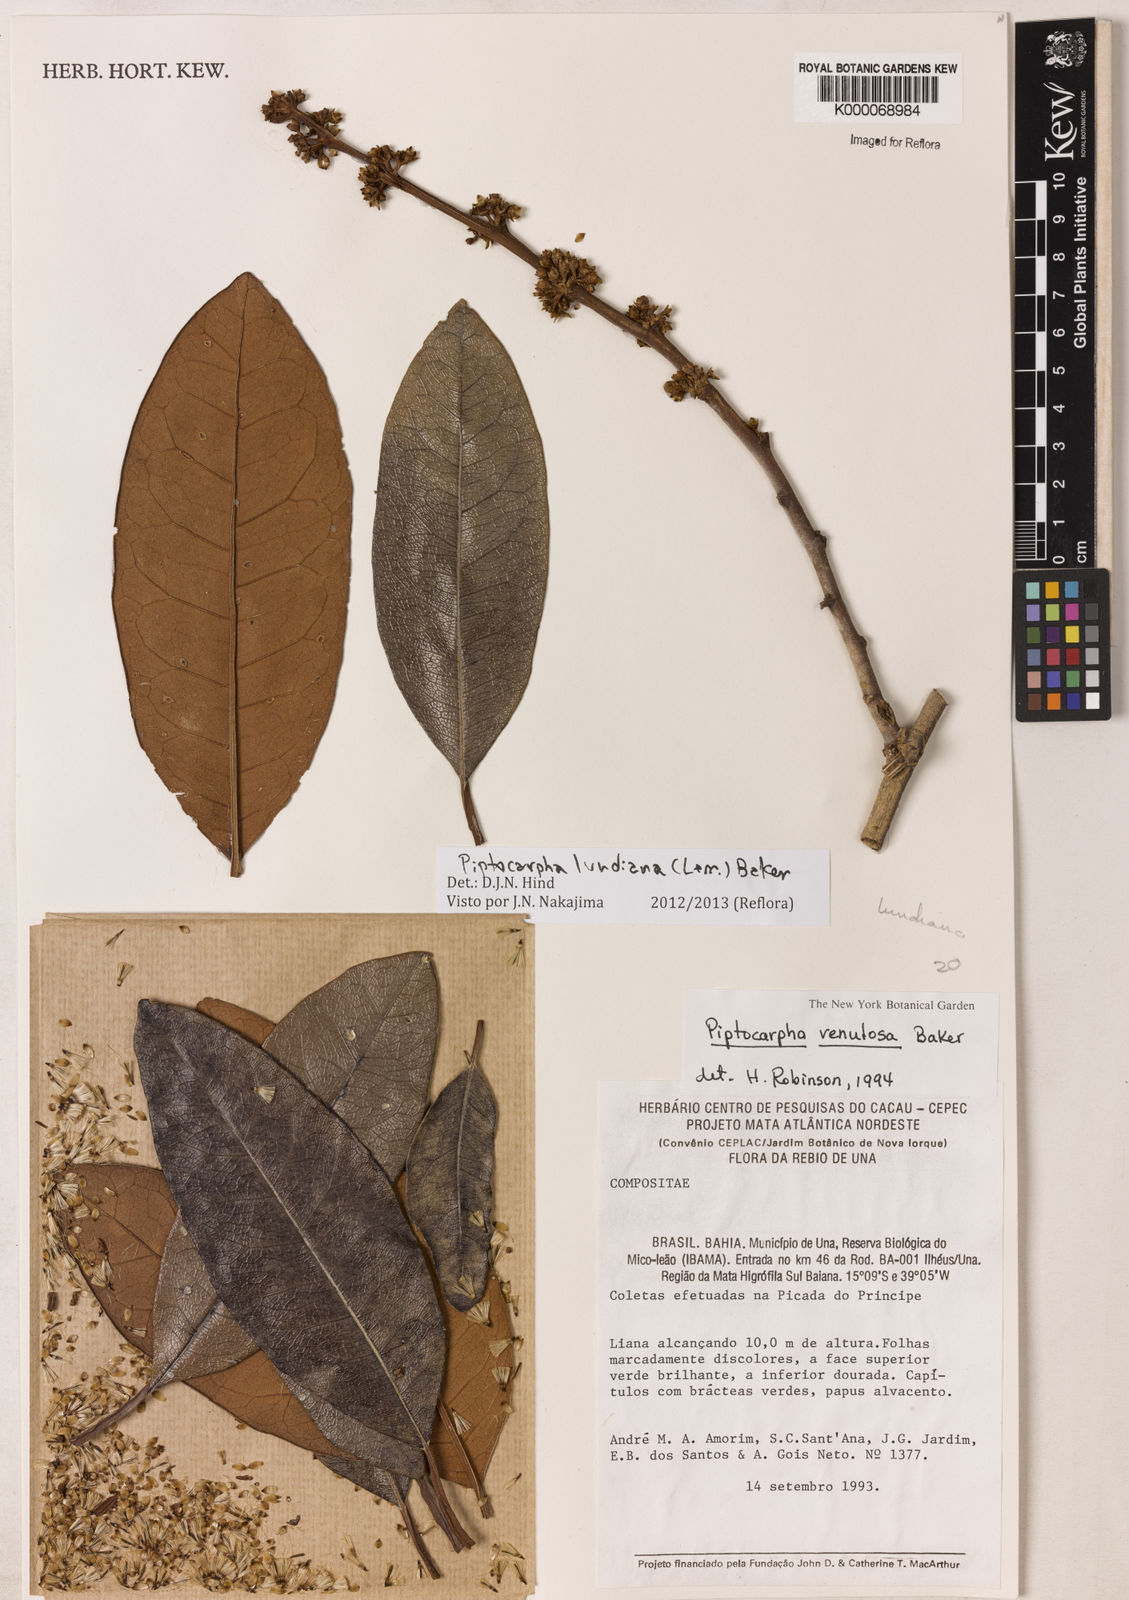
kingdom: Plantae
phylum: Tracheophyta
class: Magnoliopsida
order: Asterales
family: Asteraceae
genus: Piptocarpha
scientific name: Piptocarpha venulosa
